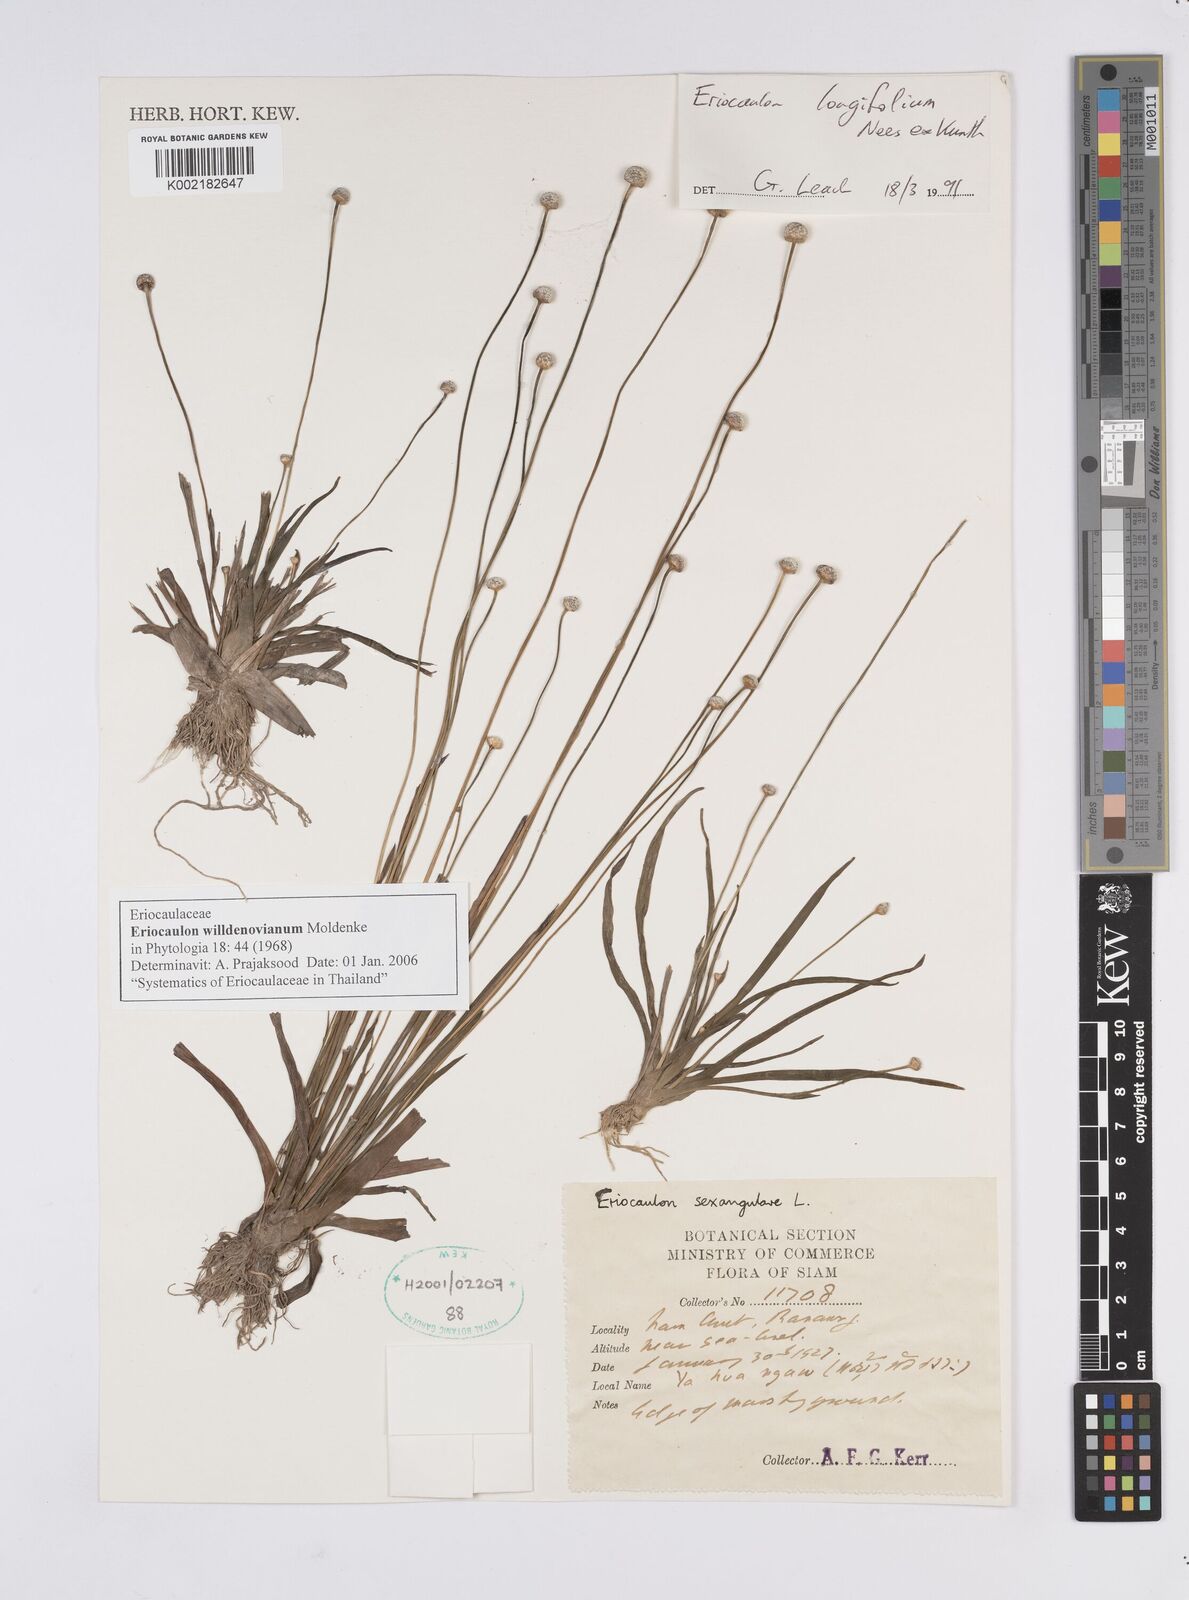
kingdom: Plantae
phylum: Tracheophyta
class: Liliopsida
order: Poales
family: Eriocaulaceae
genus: Eriocaulon
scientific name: Eriocaulon willdenovianum
